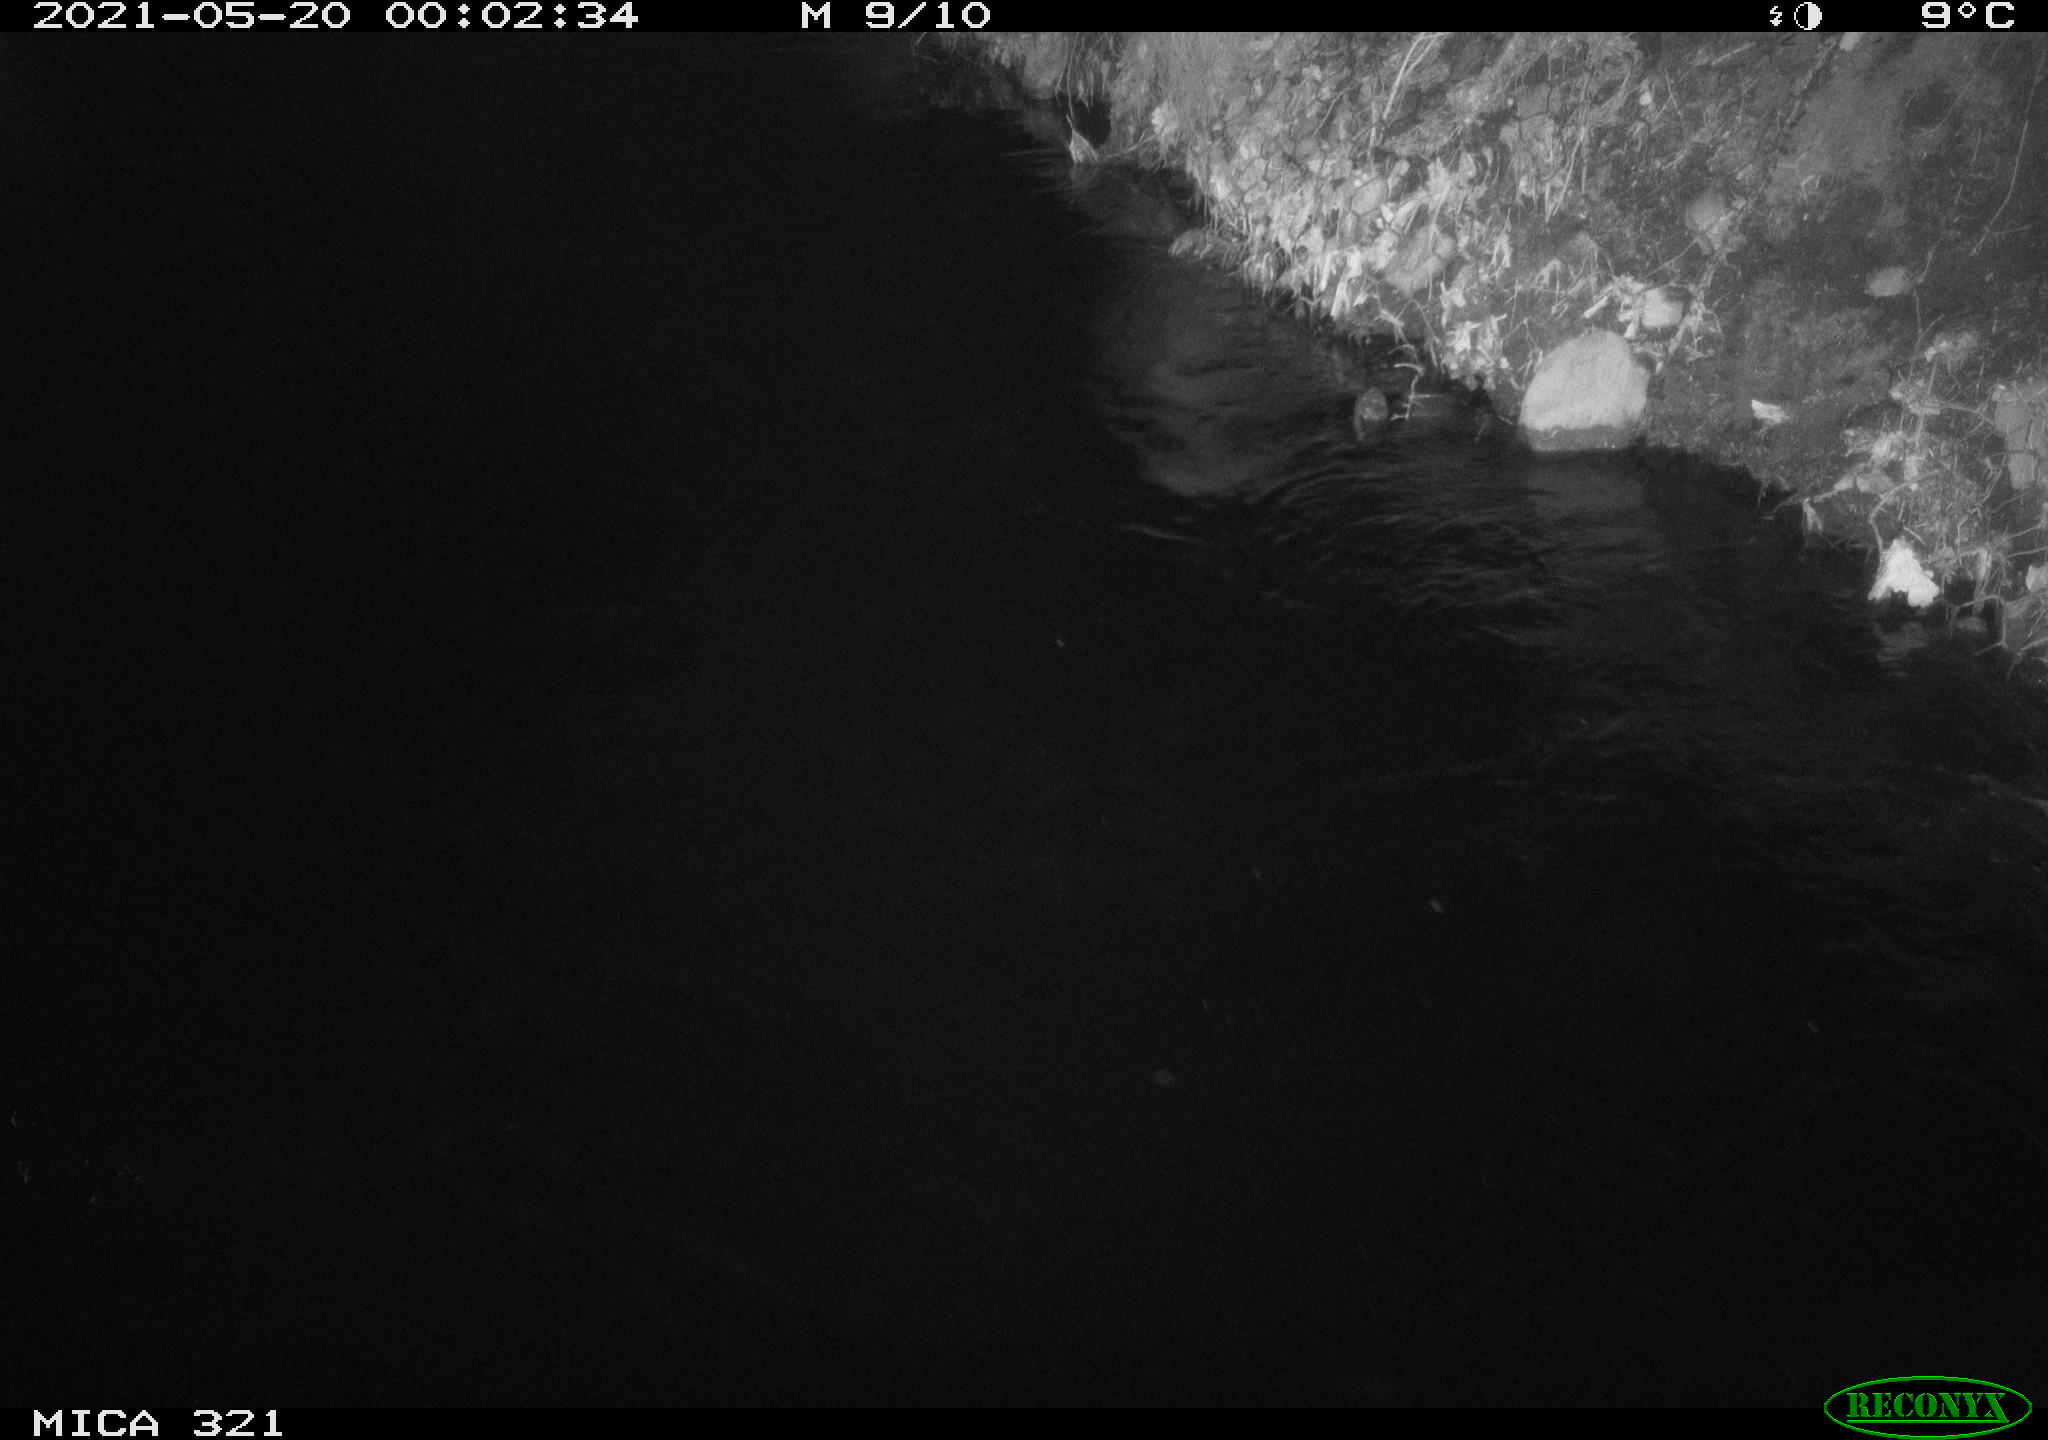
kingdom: Animalia
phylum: Chordata
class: Aves
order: Anseriformes
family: Anatidae
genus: Anas
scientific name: Anas platyrhynchos
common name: Mallard
